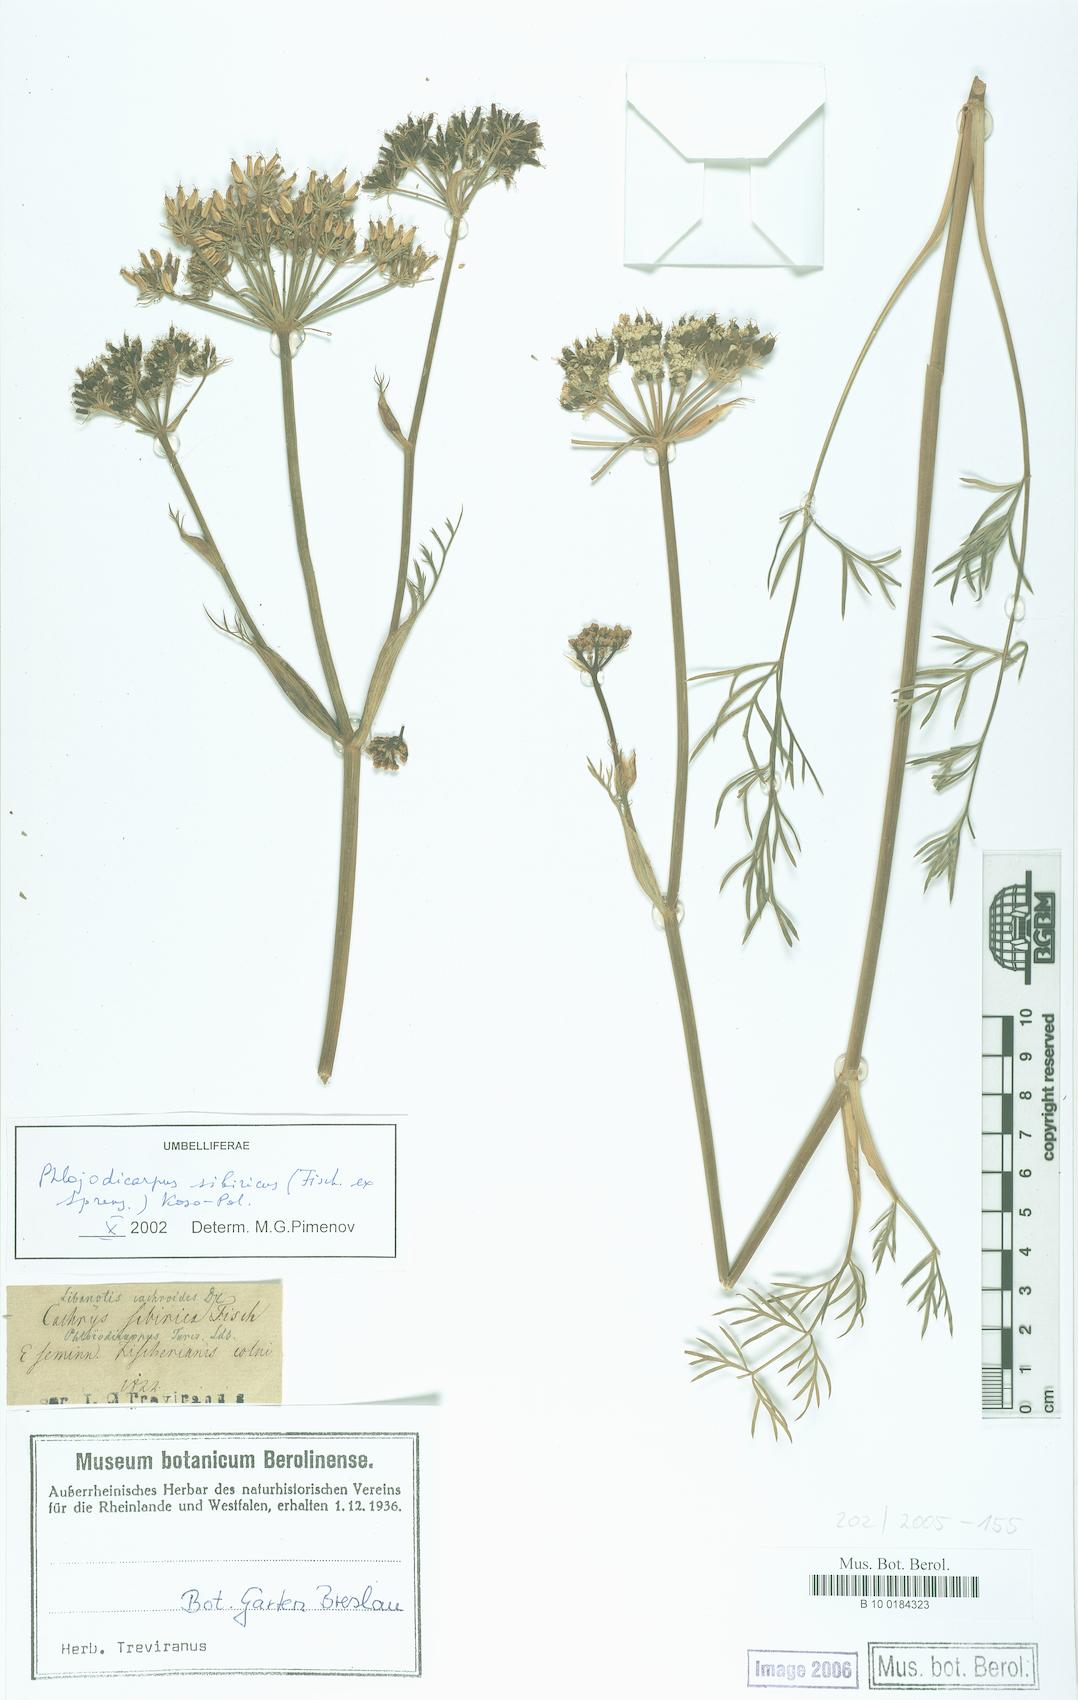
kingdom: Plantae
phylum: Tracheophyta
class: Magnoliopsida
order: Apiales
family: Apiaceae
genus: Phlojodicarpus
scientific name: Phlojodicarpus sibiricus
